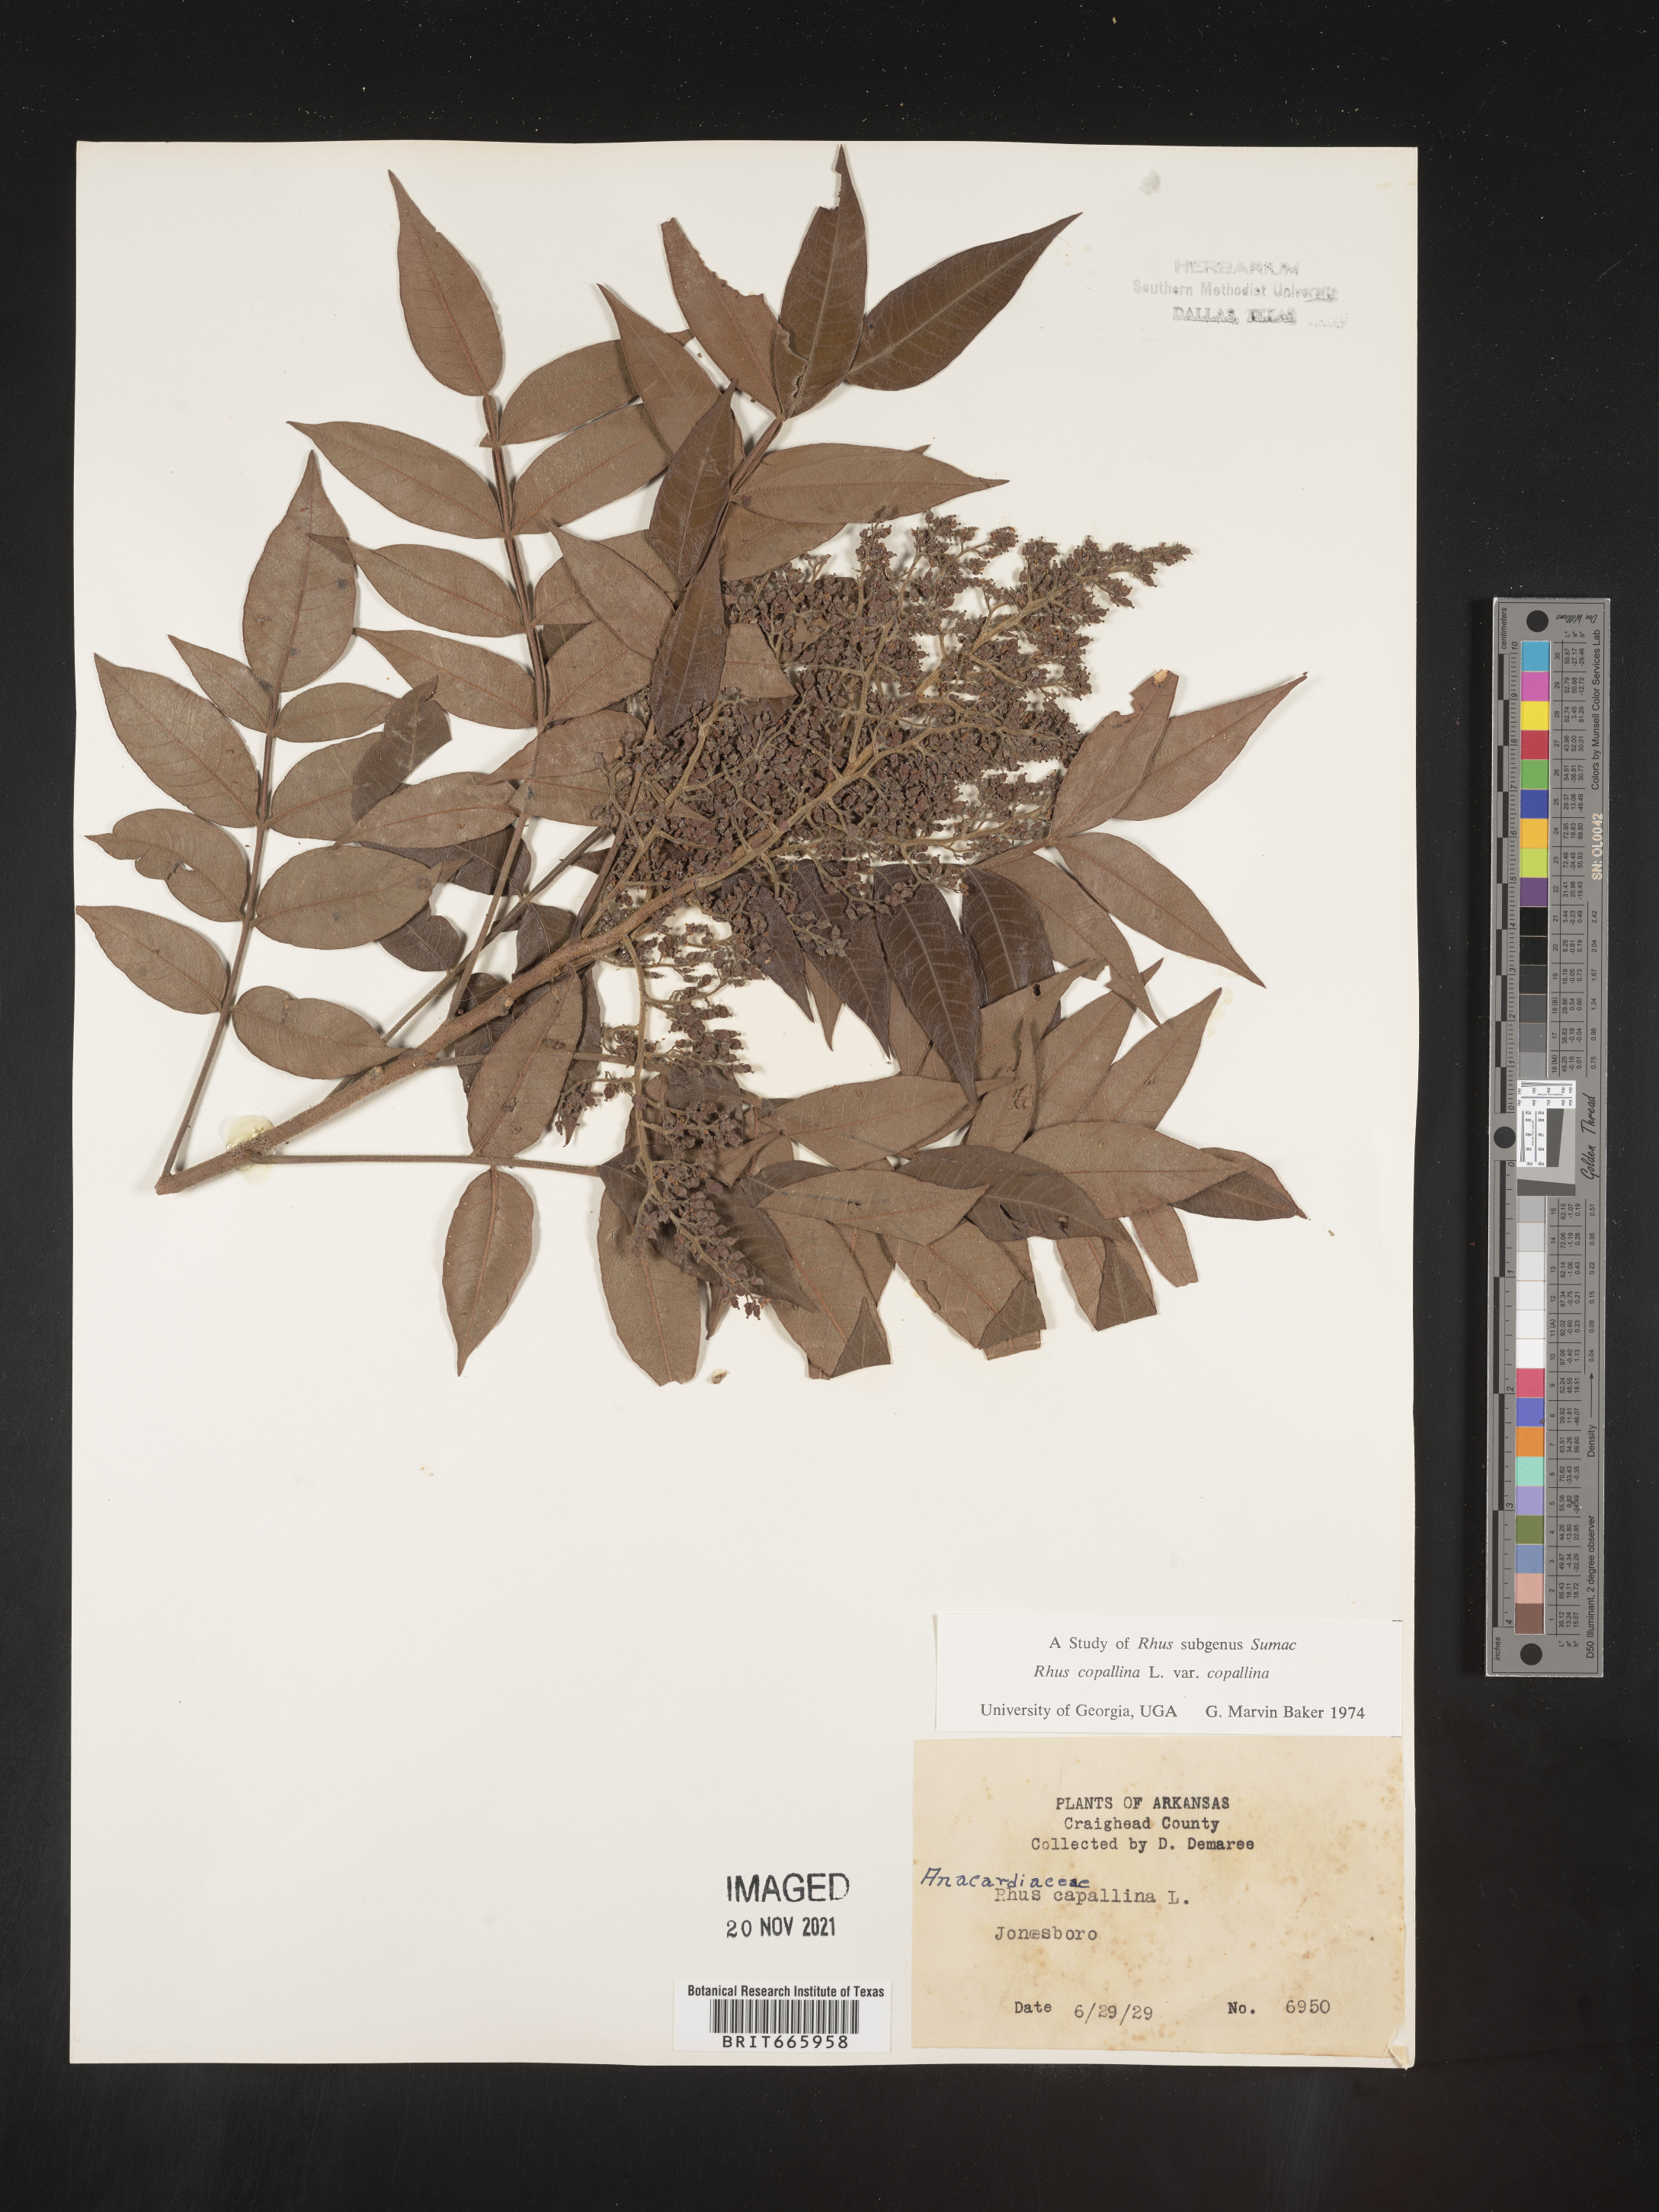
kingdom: Plantae
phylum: Tracheophyta
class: Magnoliopsida
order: Sapindales
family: Anacardiaceae
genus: Rhus
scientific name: Rhus copallina
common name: Shining sumac
